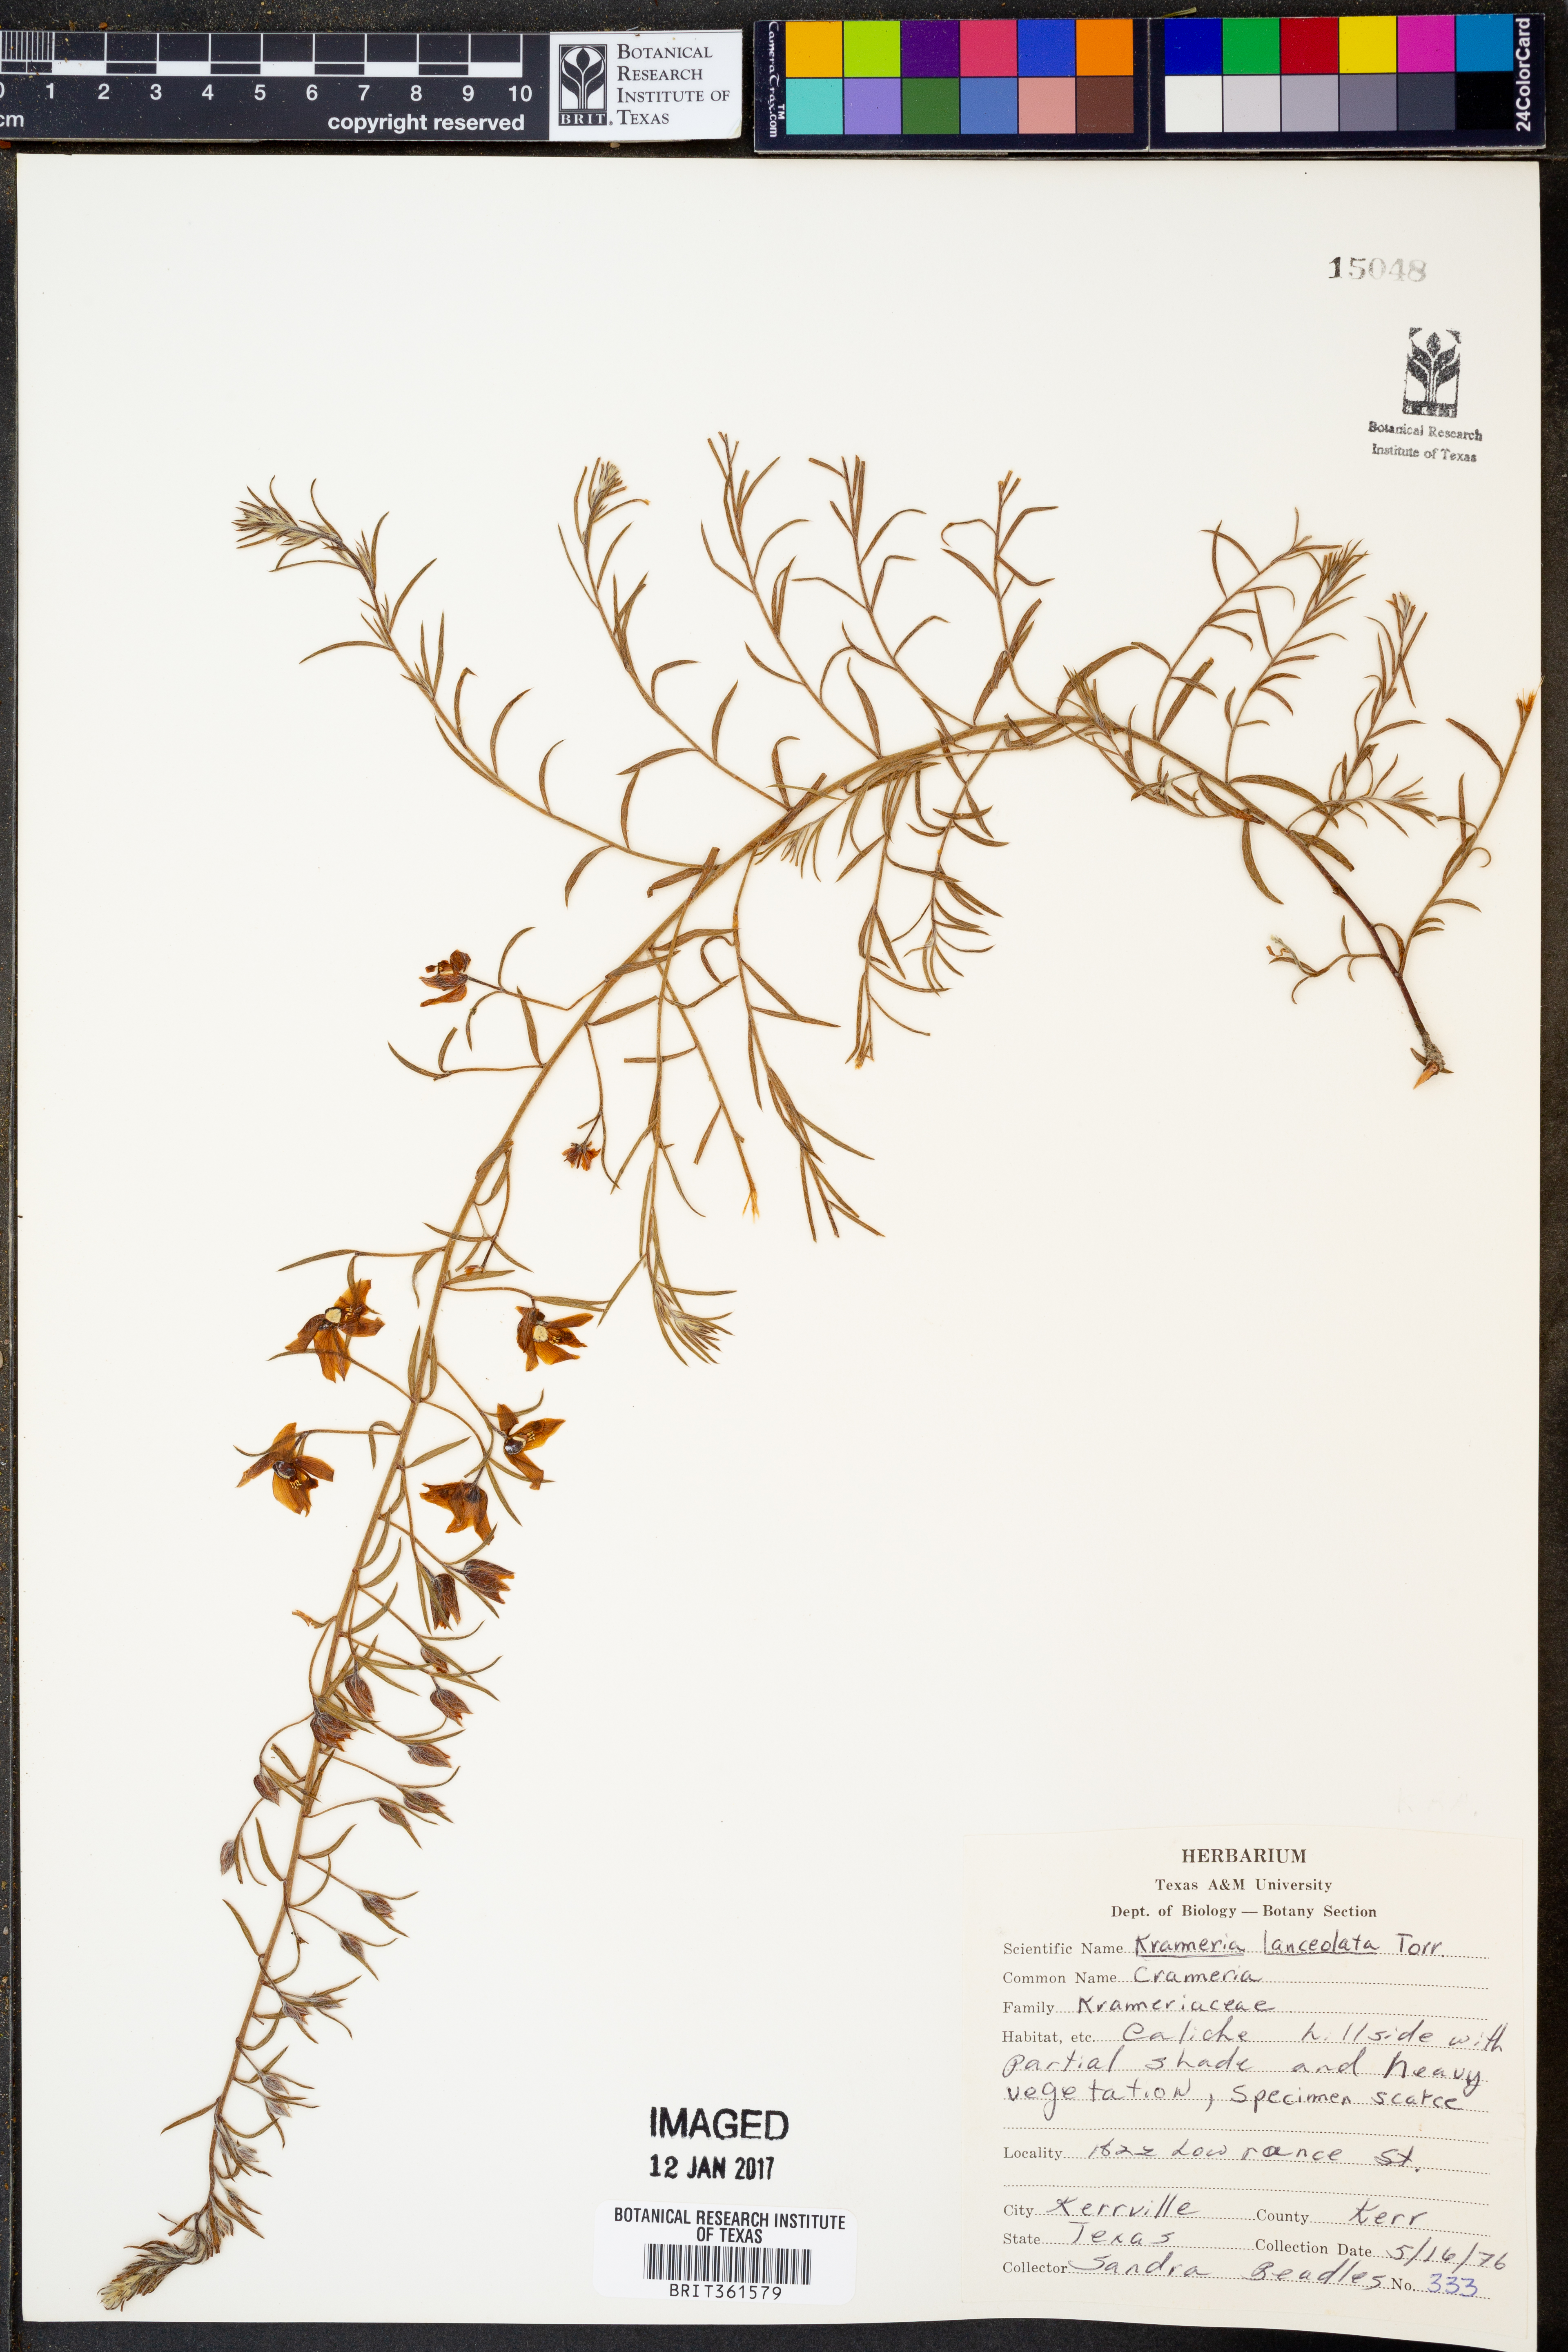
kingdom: Plantae
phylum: Tracheophyta
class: Magnoliopsida
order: Zygophyllales
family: Krameriaceae
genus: Krameria
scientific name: Krameria lanceolata
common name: Ratany
